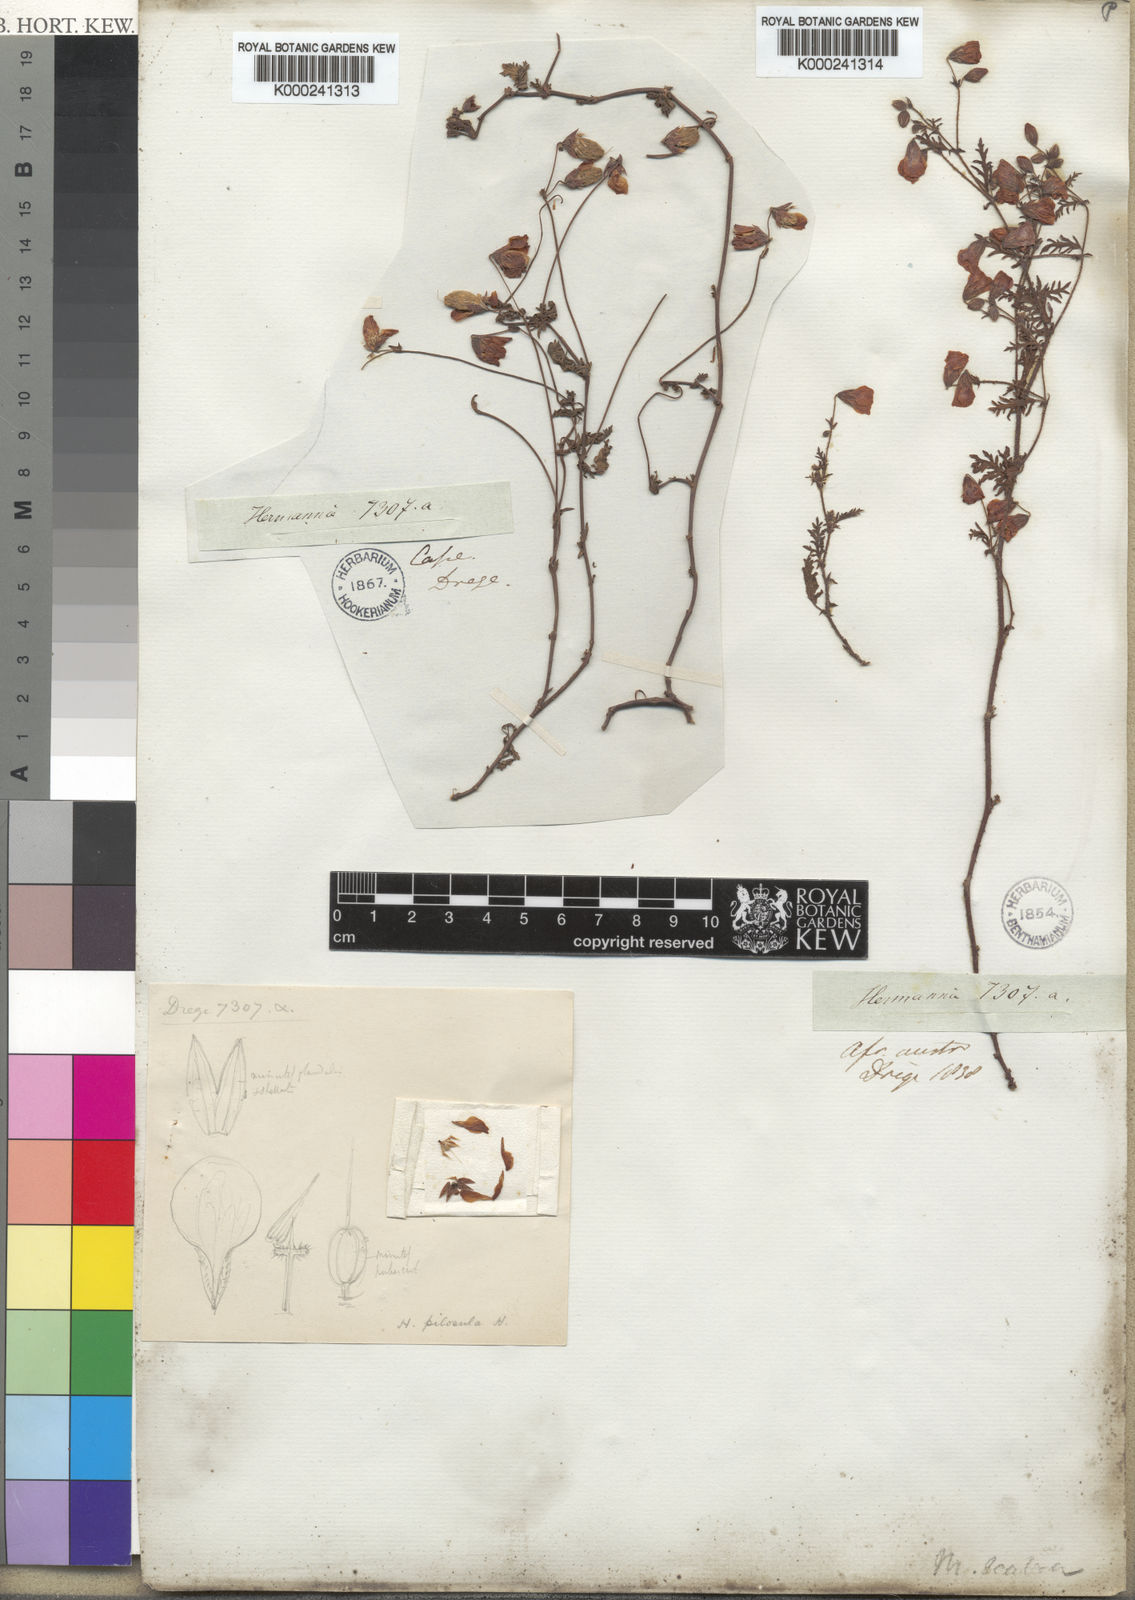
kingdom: Plantae
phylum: Tracheophyta
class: Magnoliopsida
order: Malvales
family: Malvaceae
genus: Hermannia
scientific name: Hermannia diffusa
